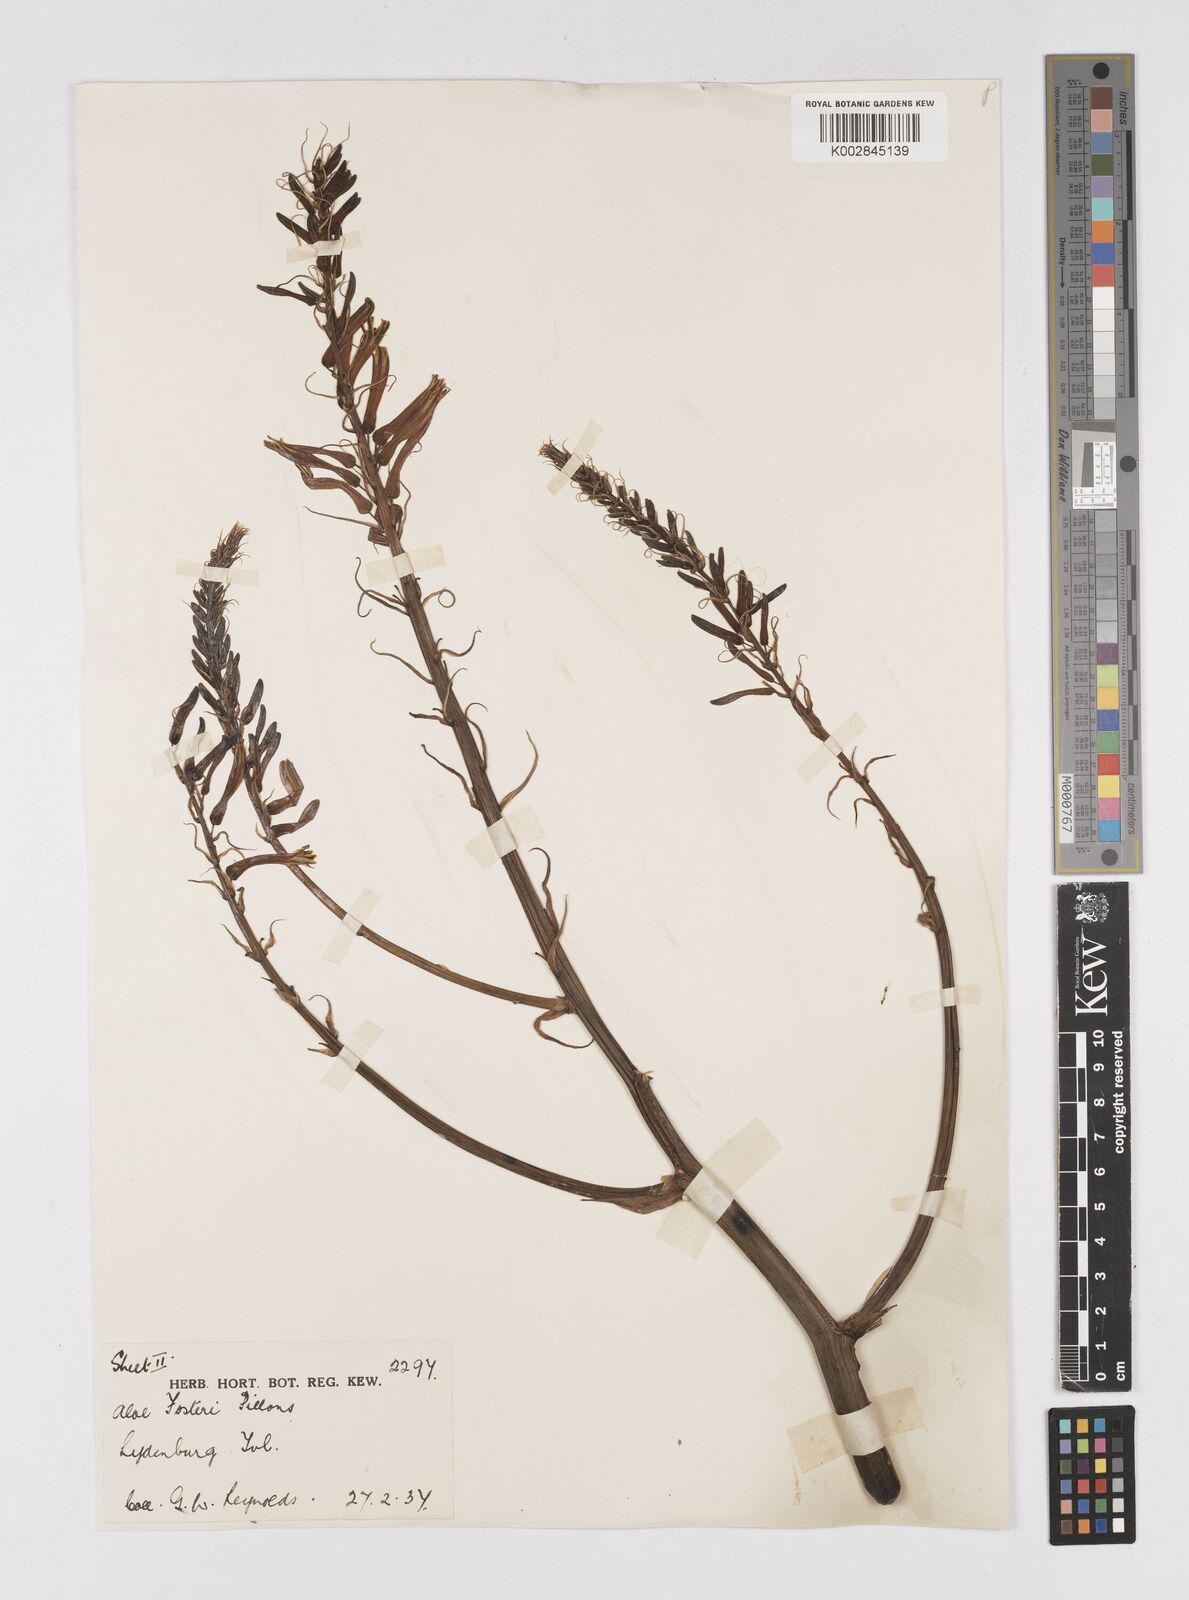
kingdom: Plantae
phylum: Tracheophyta
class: Liliopsida
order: Asparagales
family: Asphodelaceae
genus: Aloe
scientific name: Aloe fosteri
